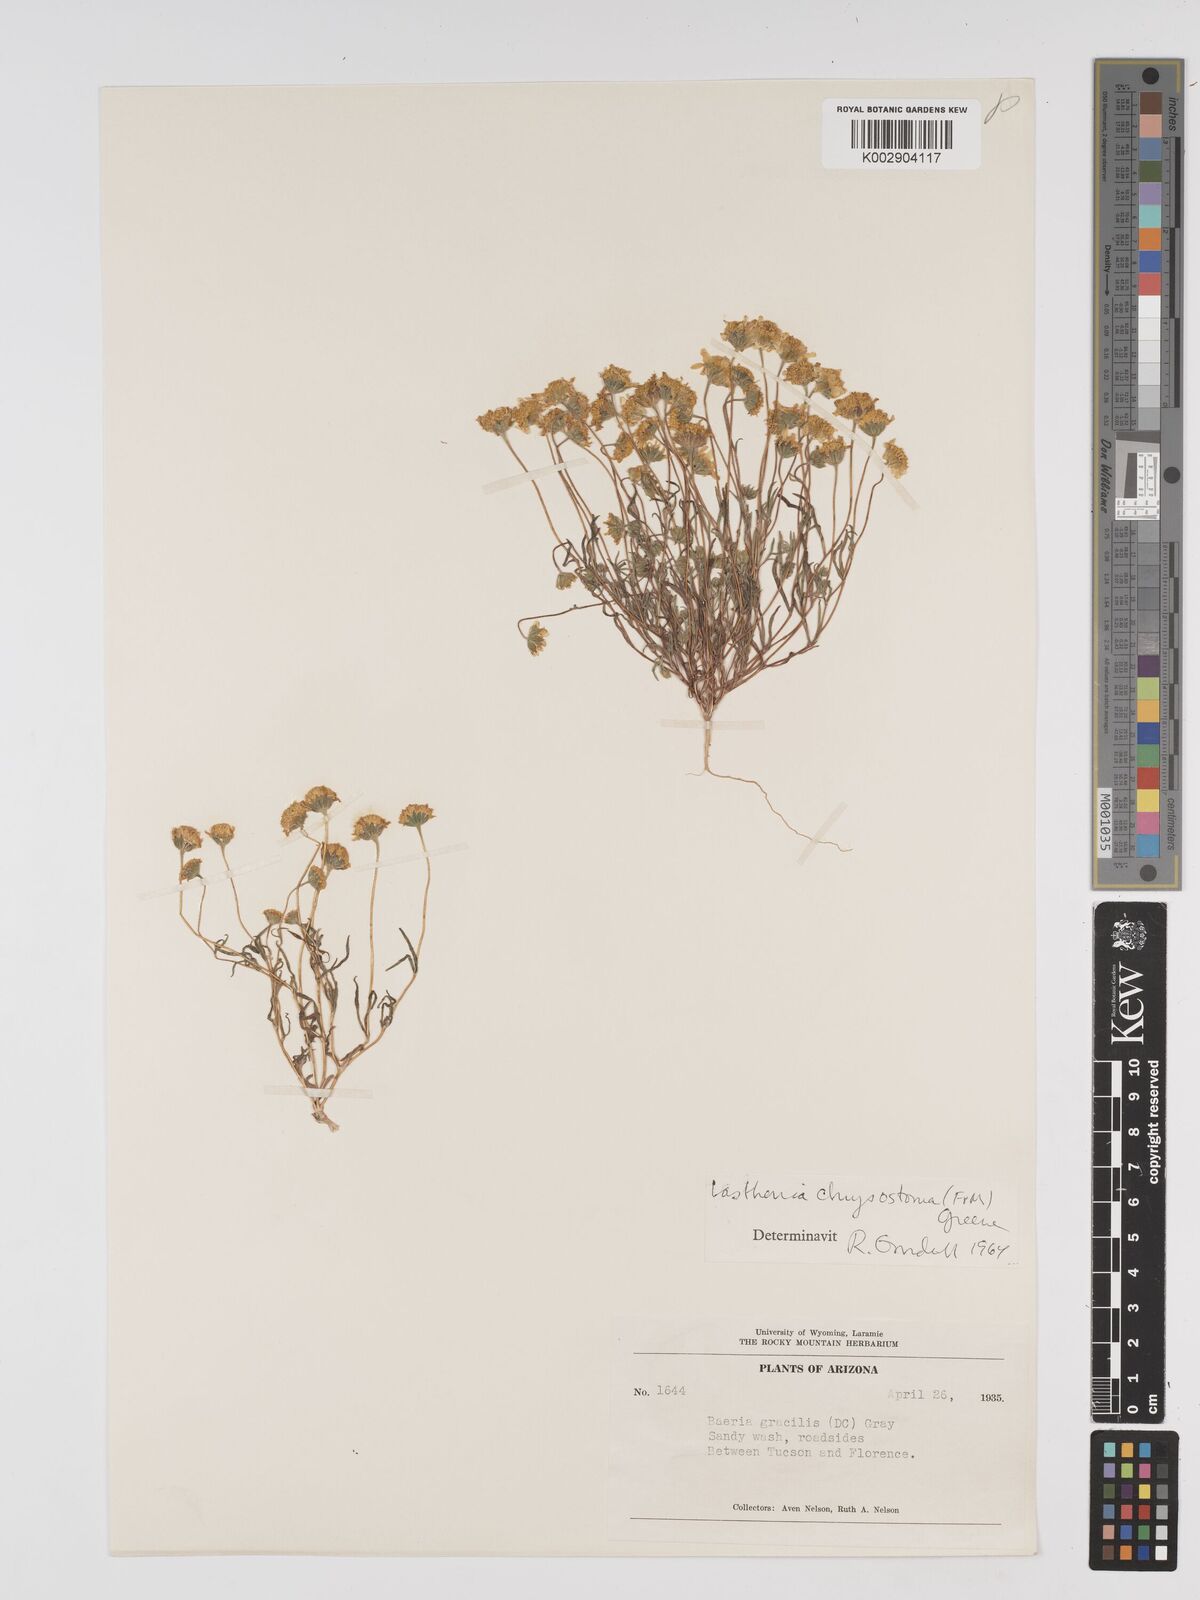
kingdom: Plantae
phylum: Tracheophyta
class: Magnoliopsida
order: Asterales
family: Asteraceae
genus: Lasthenia
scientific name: Lasthenia californica
